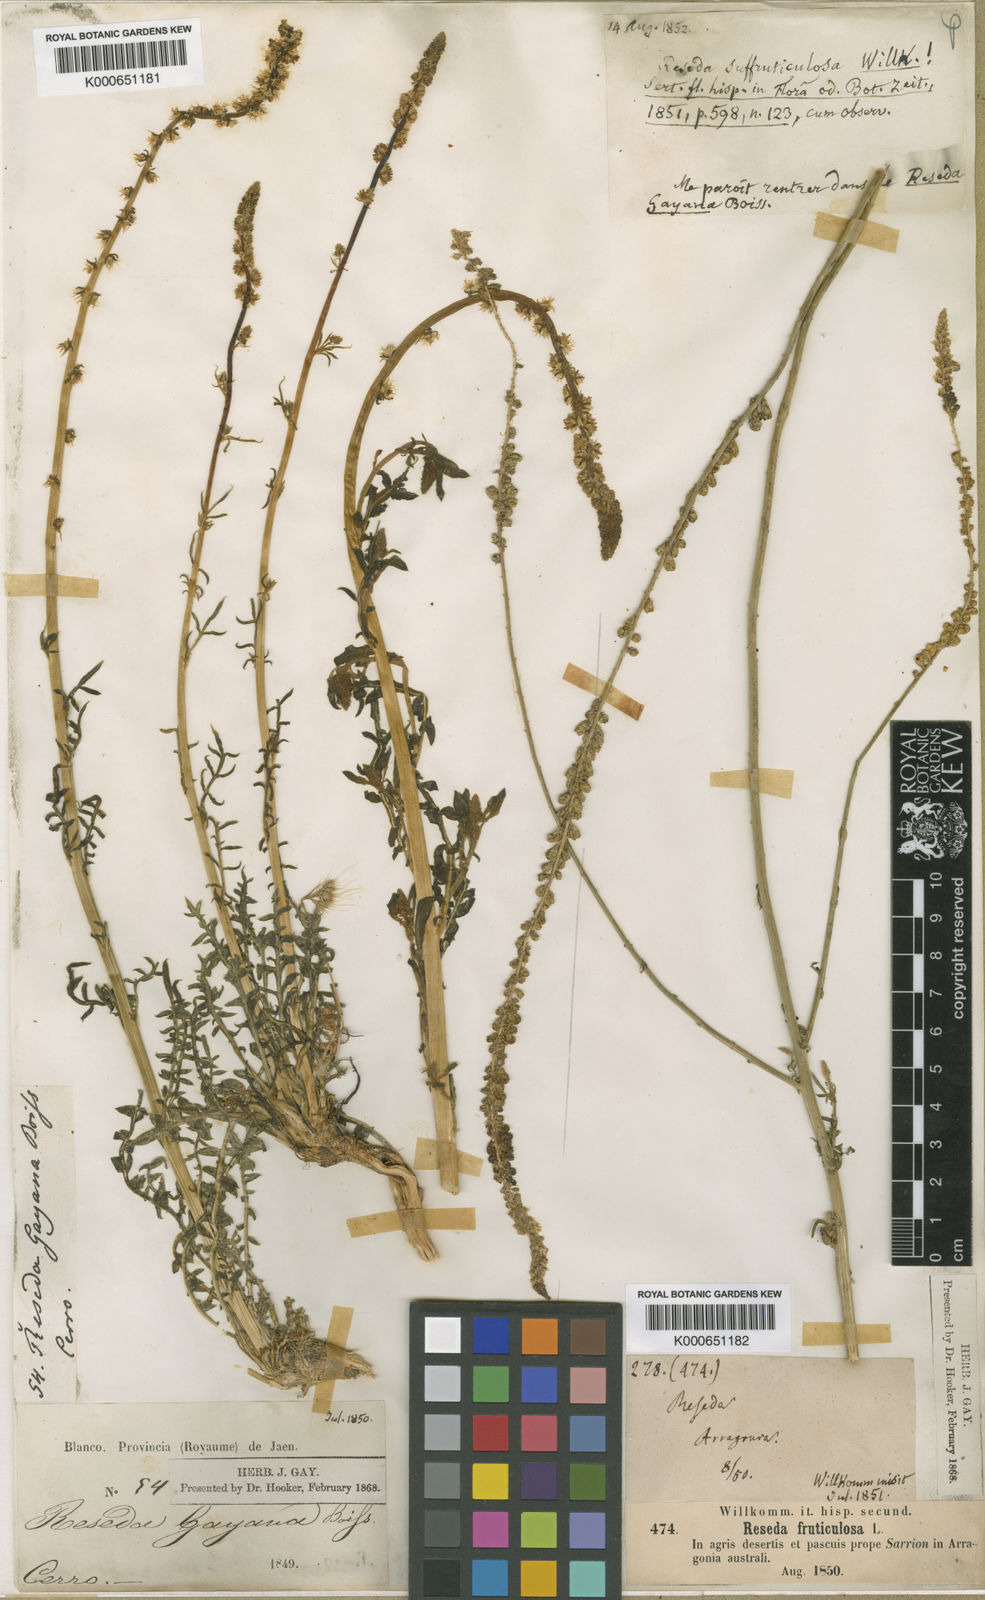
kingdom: Plantae
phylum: Tracheophyta
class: Magnoliopsida
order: Brassicales
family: Resedaceae
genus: Reseda
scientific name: Reseda undata
